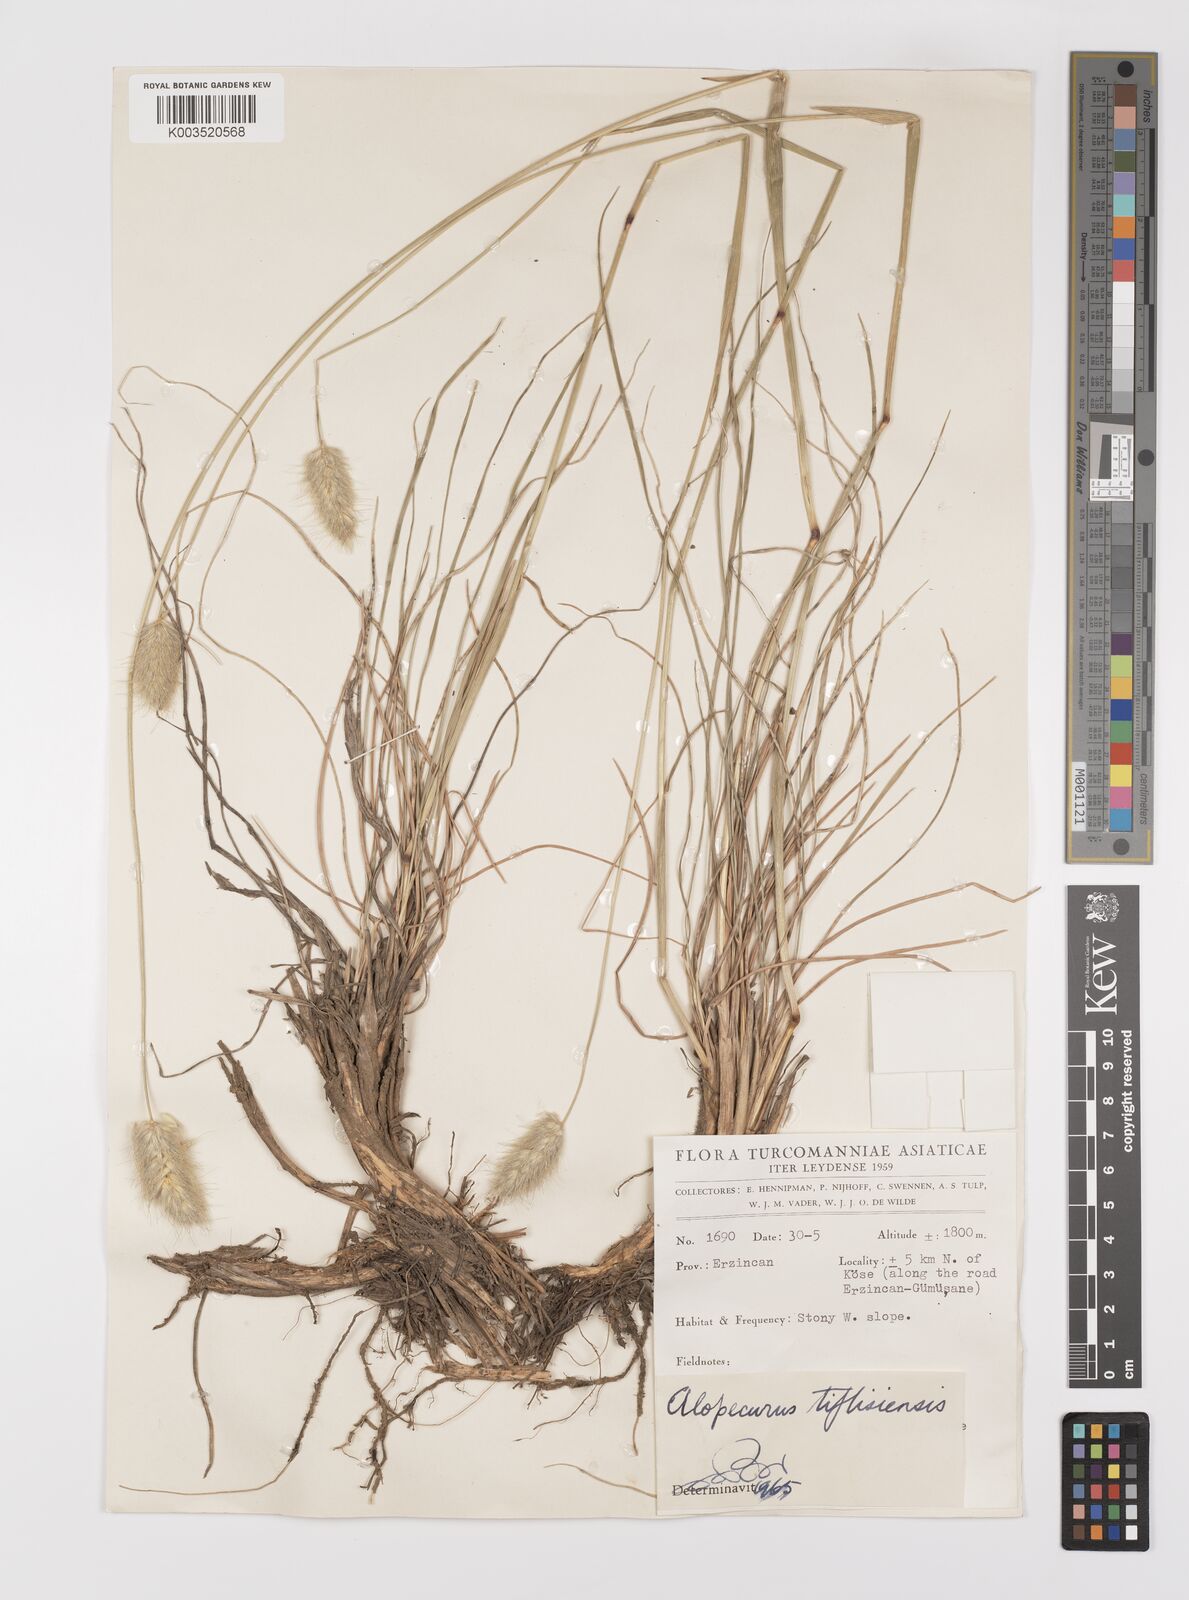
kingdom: Plantae
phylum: Tracheophyta
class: Liliopsida
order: Poales
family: Poaceae
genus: Alopecurus
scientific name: Alopecurus textilis
